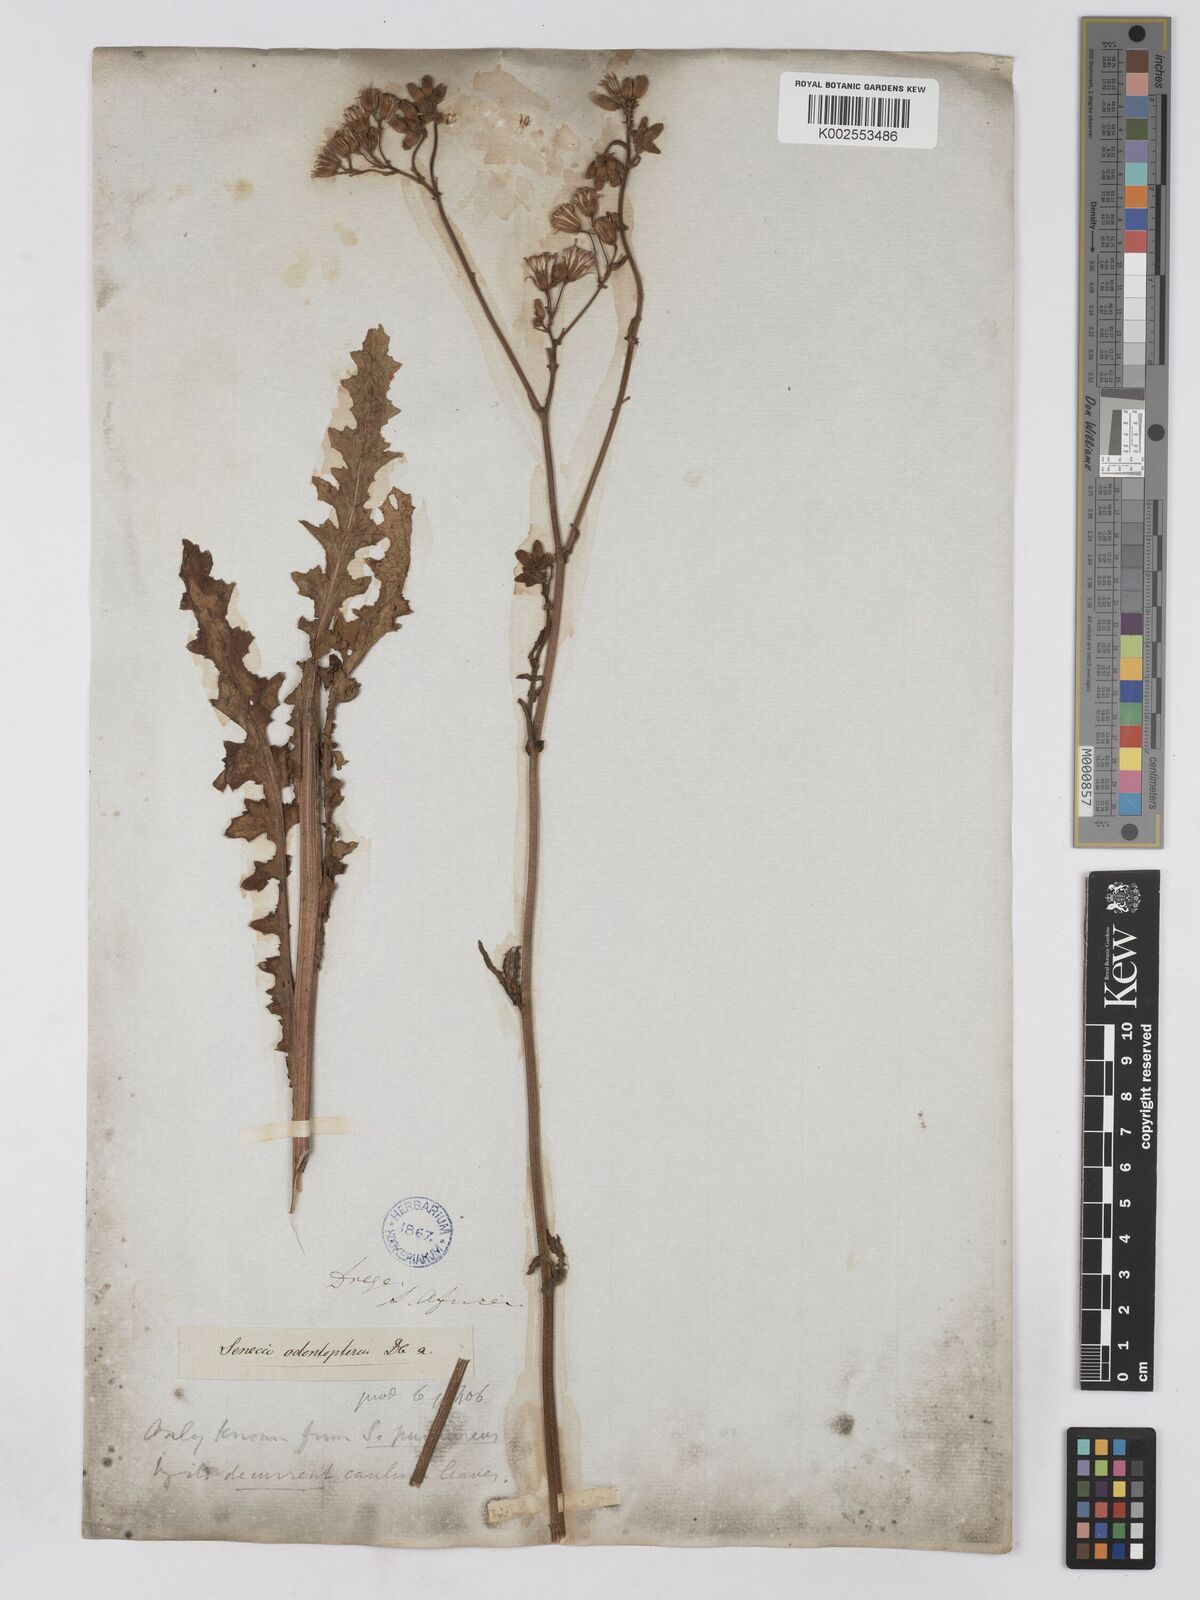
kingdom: Plantae
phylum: Tracheophyta
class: Magnoliopsida
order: Asterales
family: Asteraceae
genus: Senecio
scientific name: Senecio odontopterus
